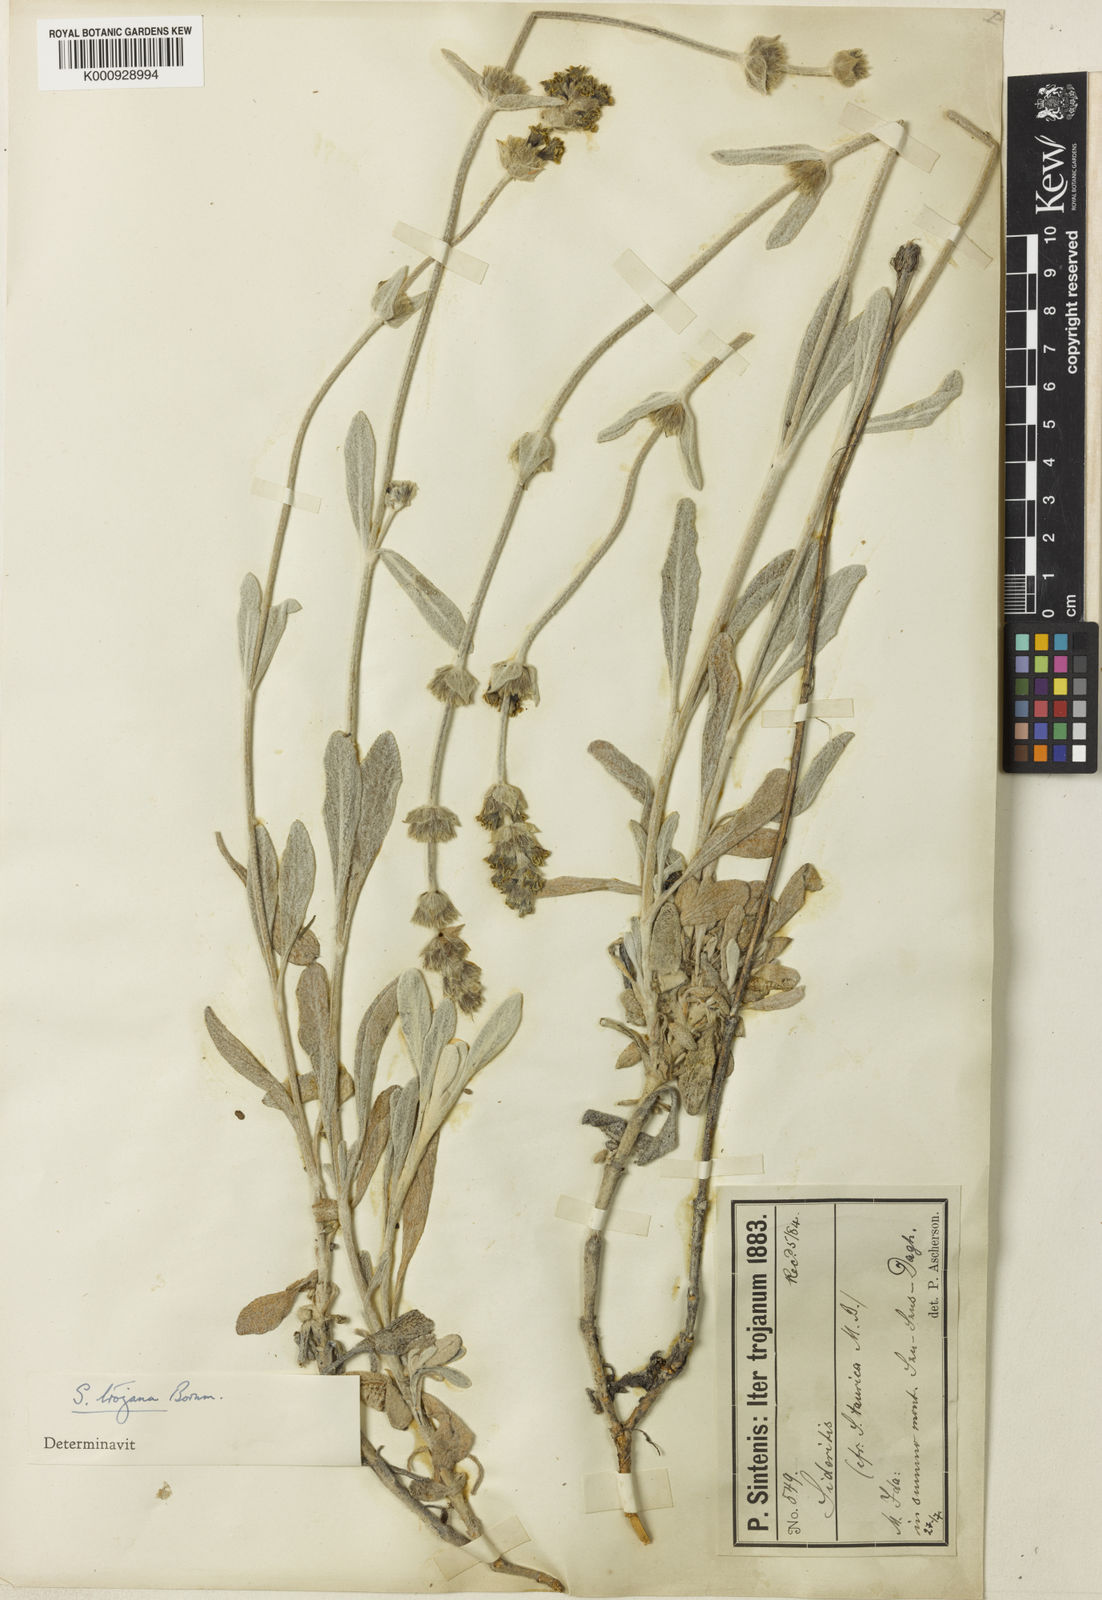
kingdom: Plantae
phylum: Tracheophyta
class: Magnoliopsida
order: Lamiales
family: Lamiaceae
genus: Sideritis
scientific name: Sideritis libanotica
